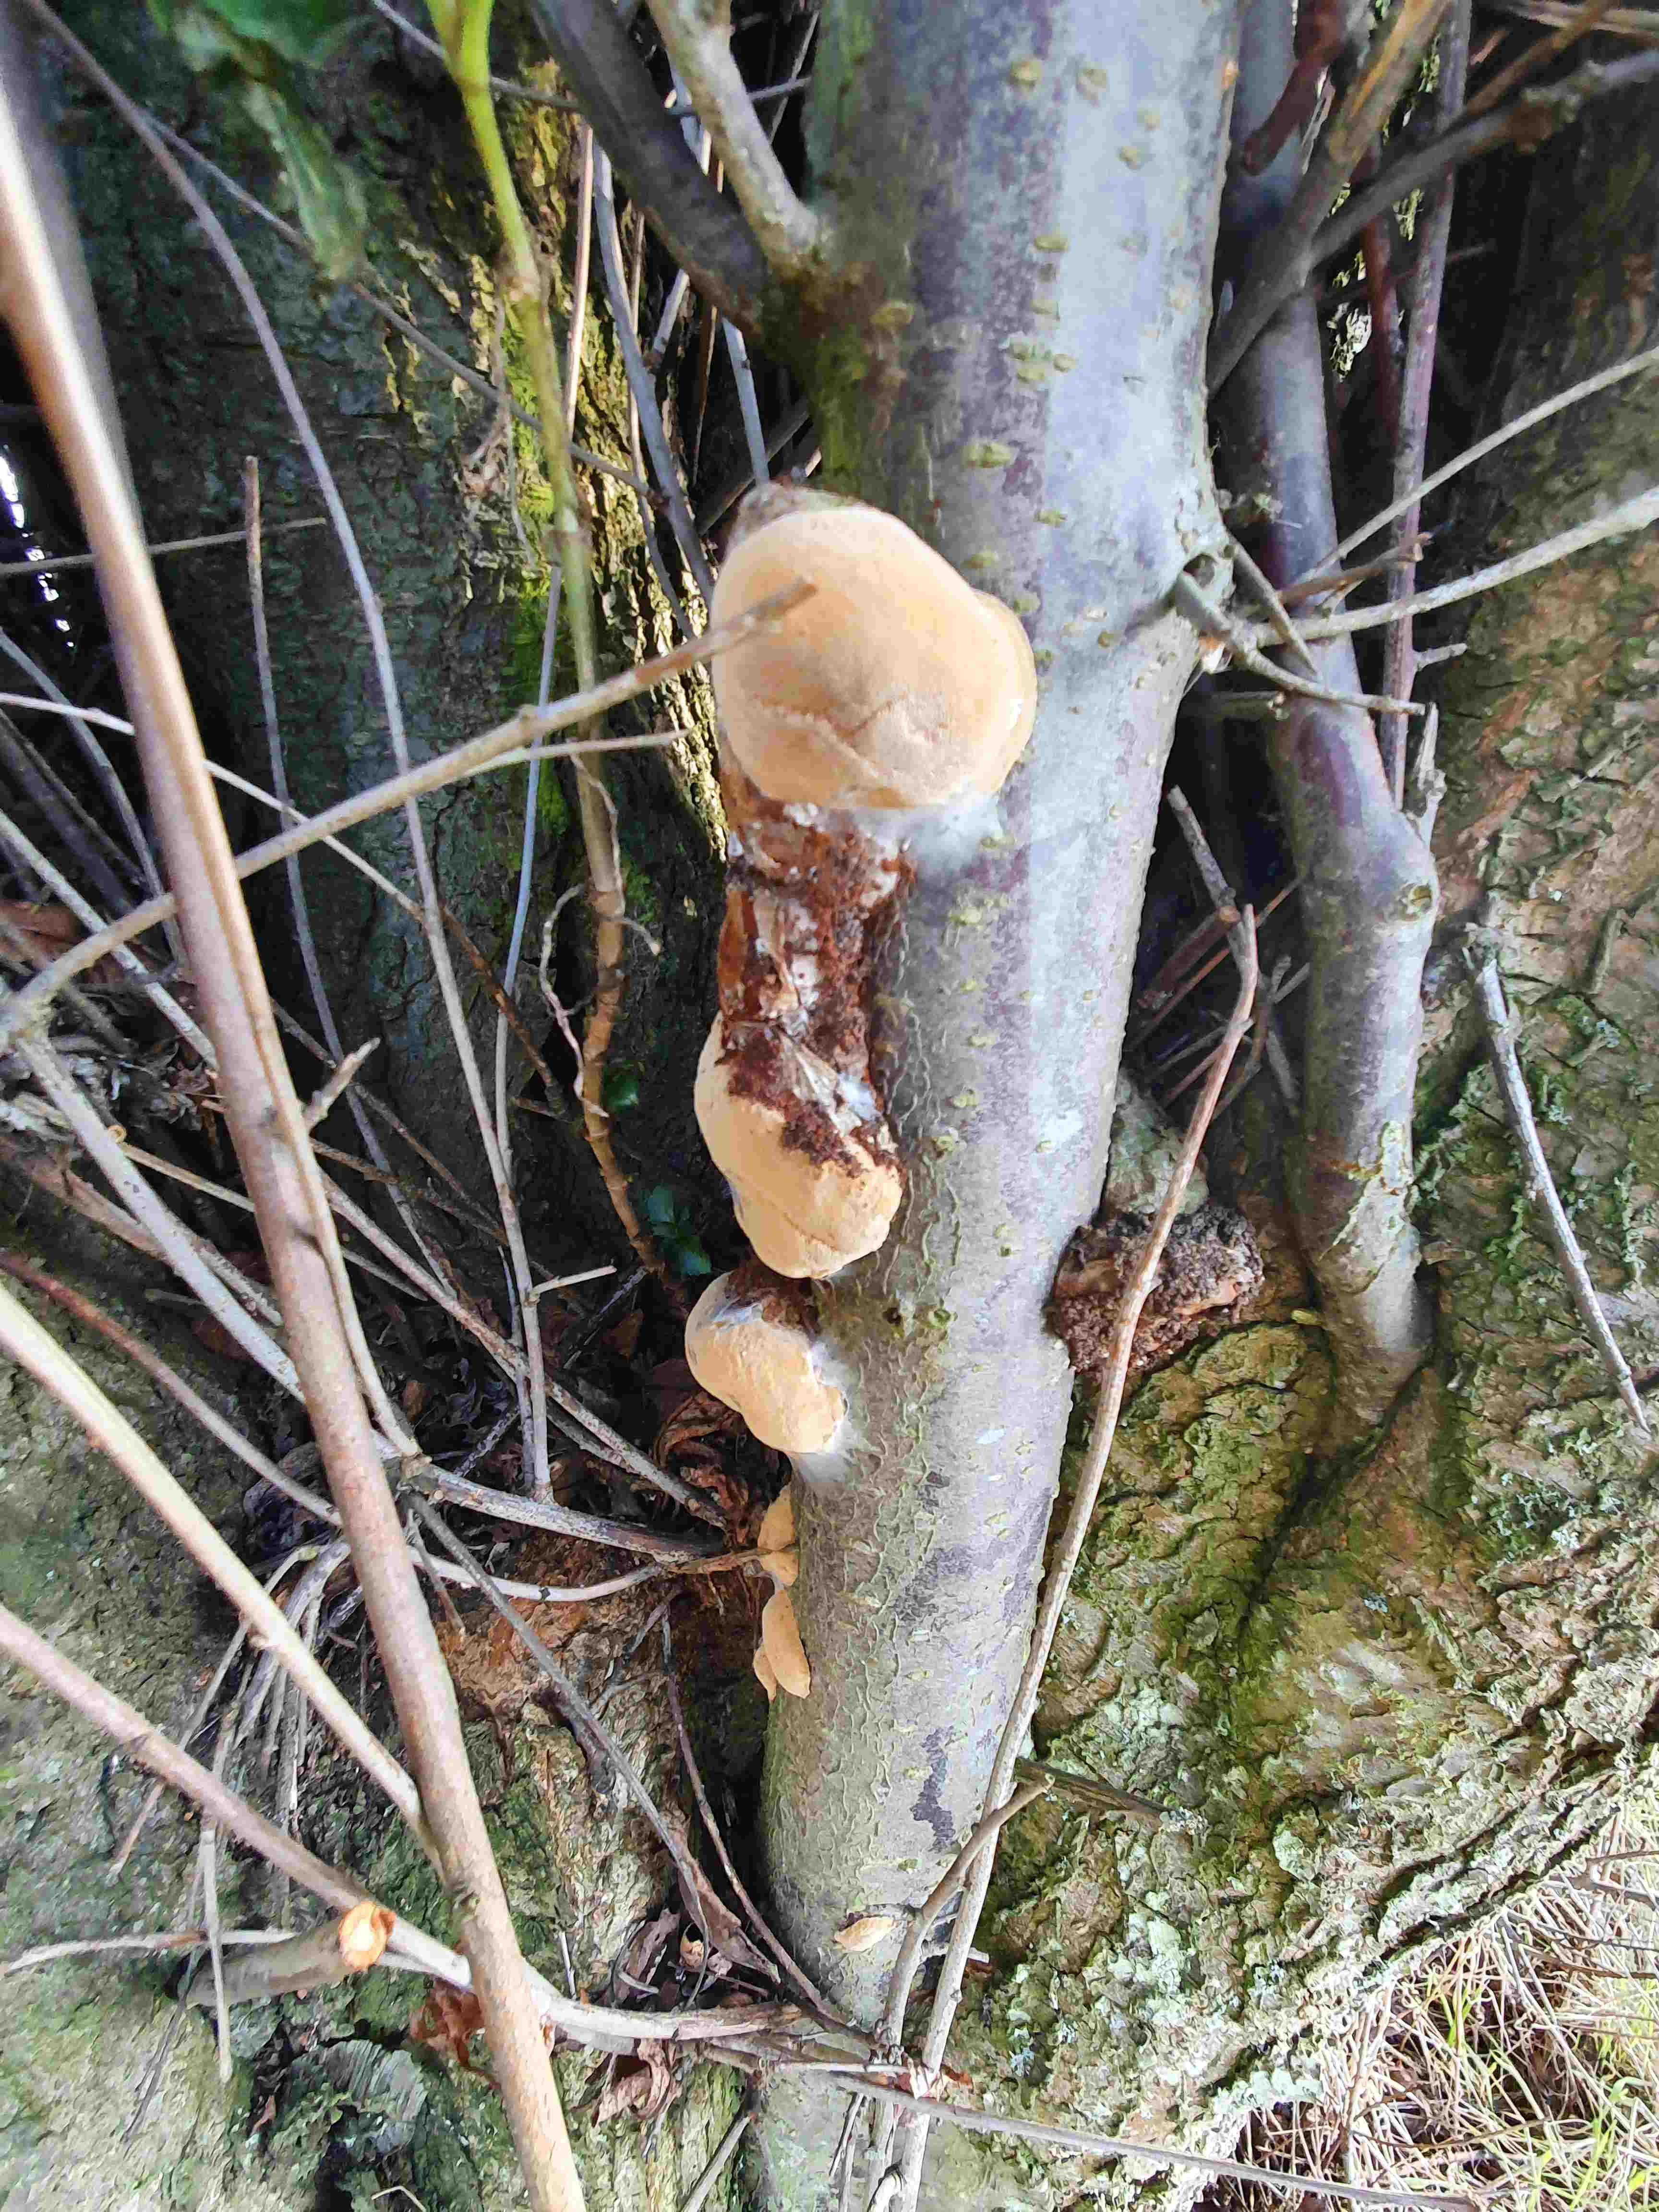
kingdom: Fungi
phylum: Basidiomycota
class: Agaricomycetes
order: Hymenochaetales
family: Hymenochaetaceae
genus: Phellinus
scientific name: Phellinus pomaceus
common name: blomme-ildporesvamp
